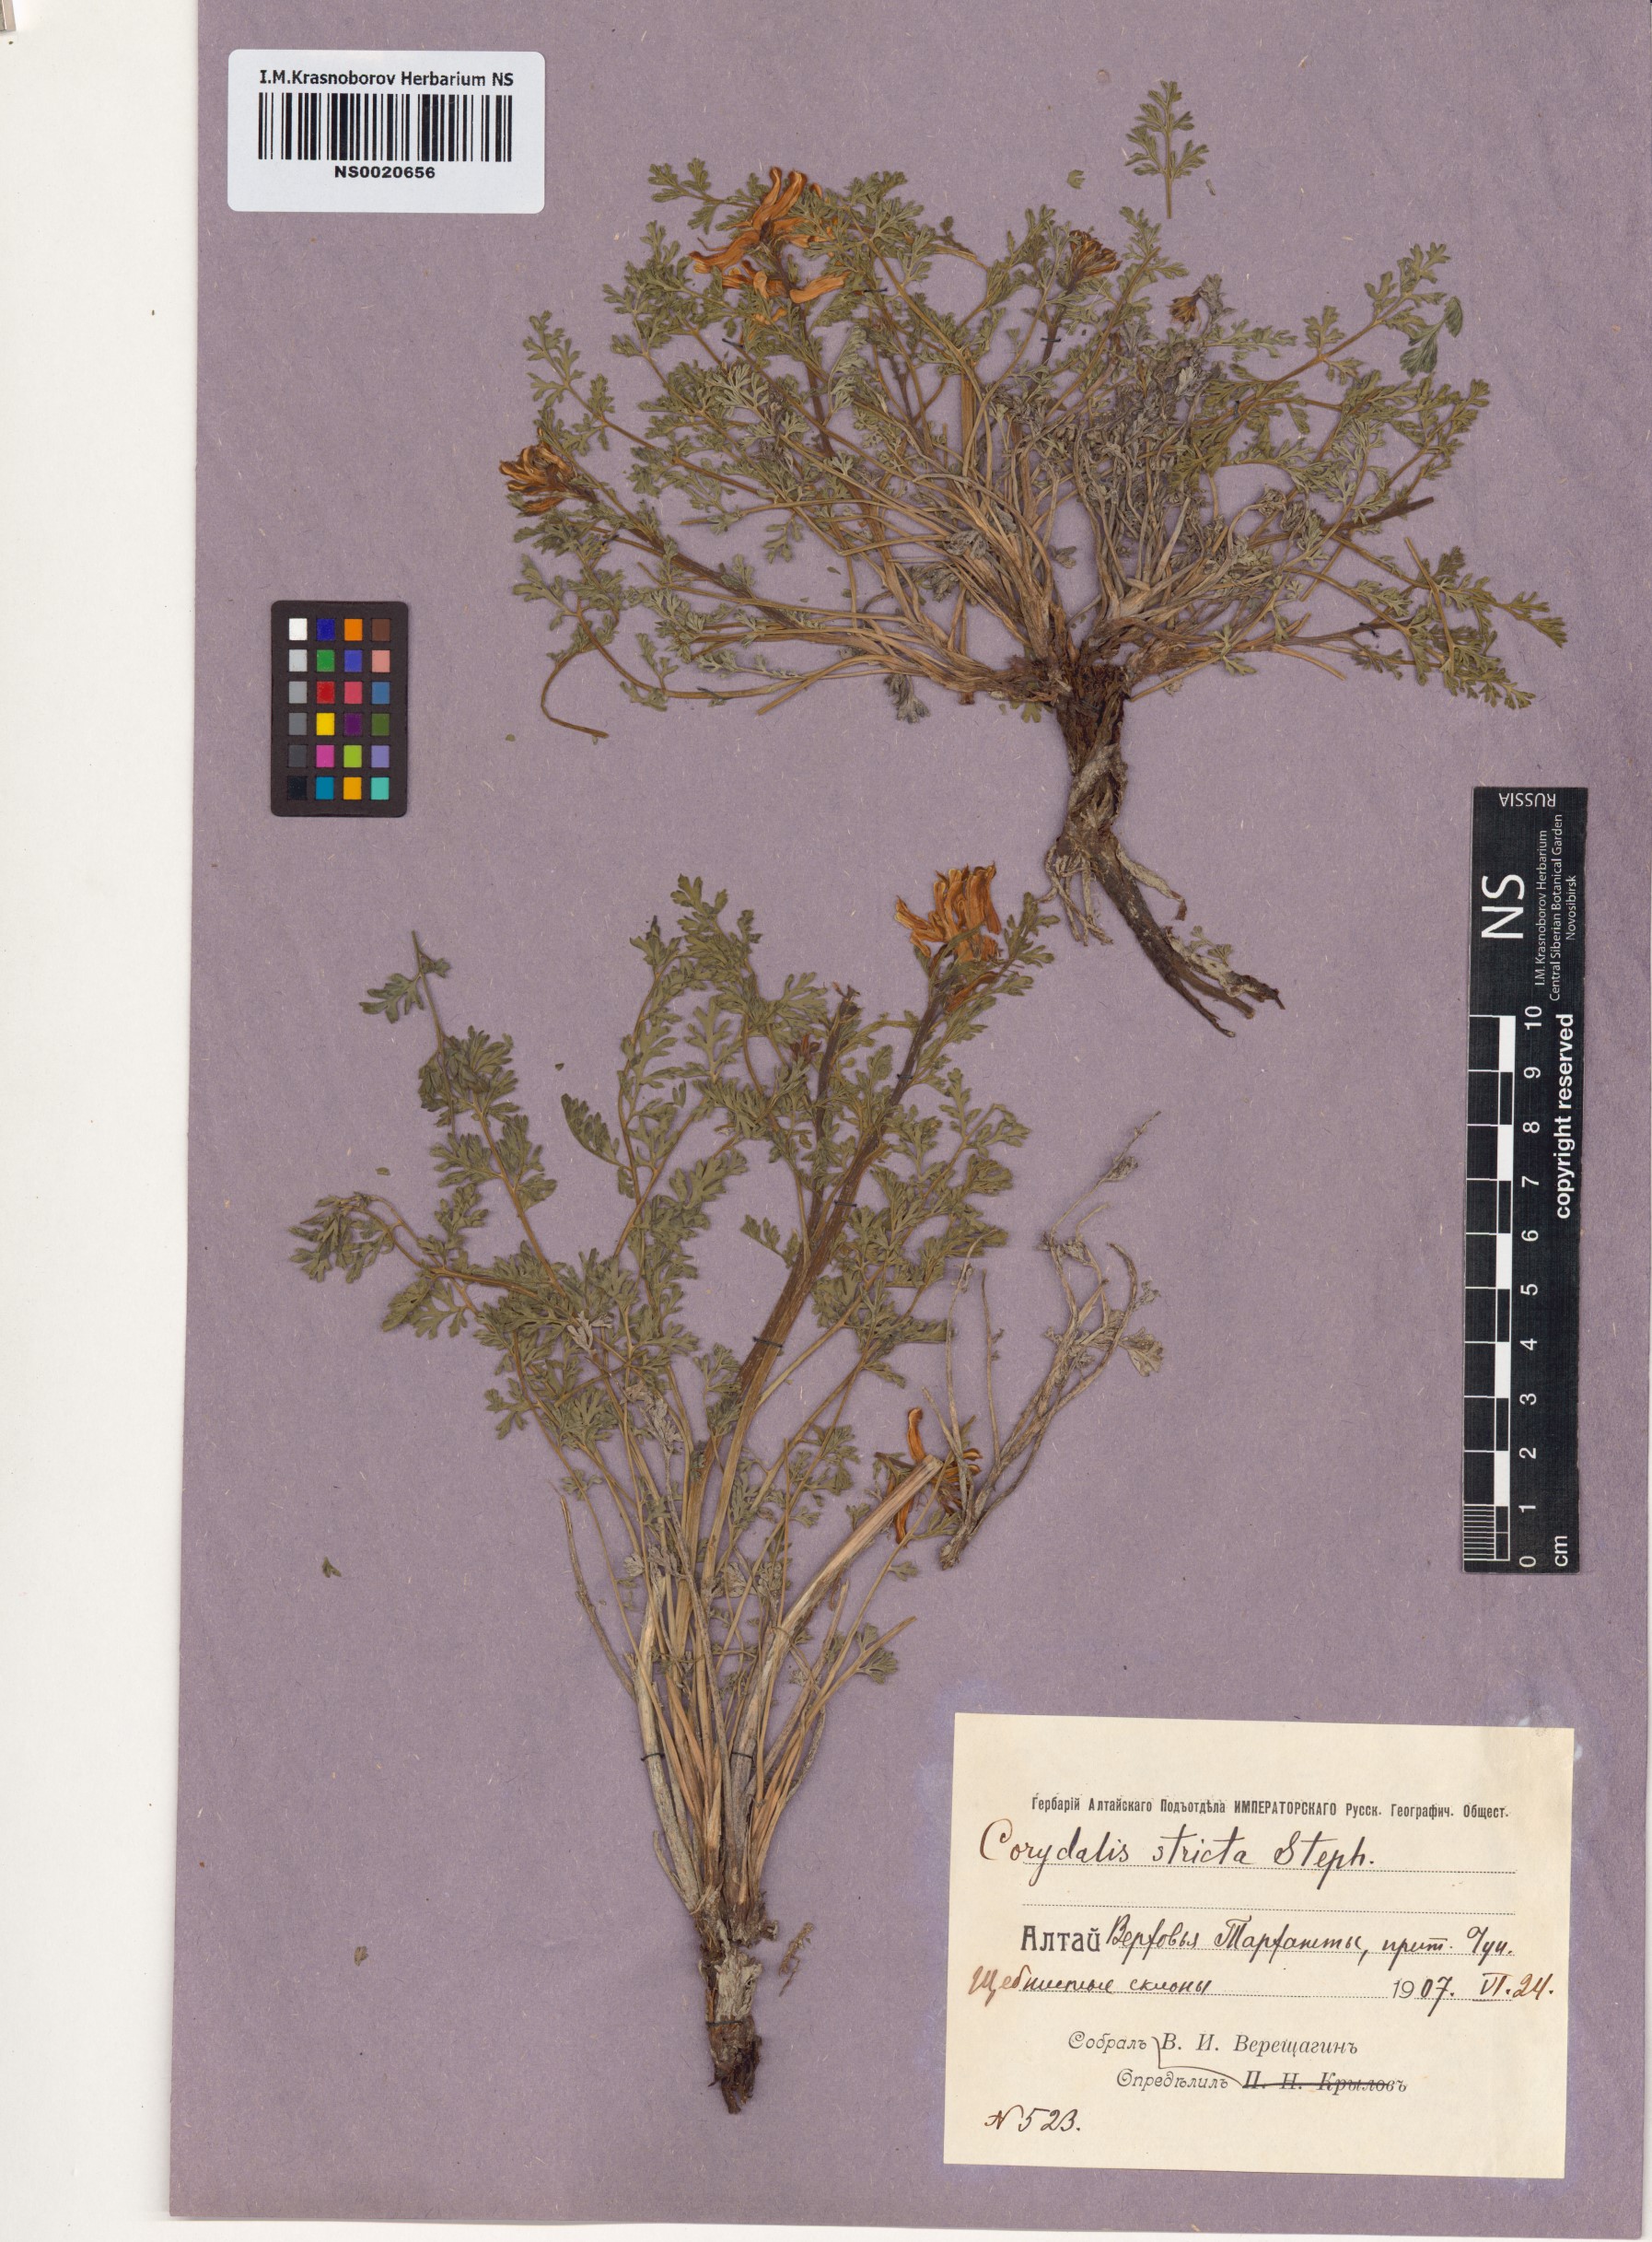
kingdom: Plantae
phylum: Tracheophyta
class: Magnoliopsida
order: Ranunculales
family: Papaveraceae
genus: Corydalis
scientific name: Corydalis stricta
